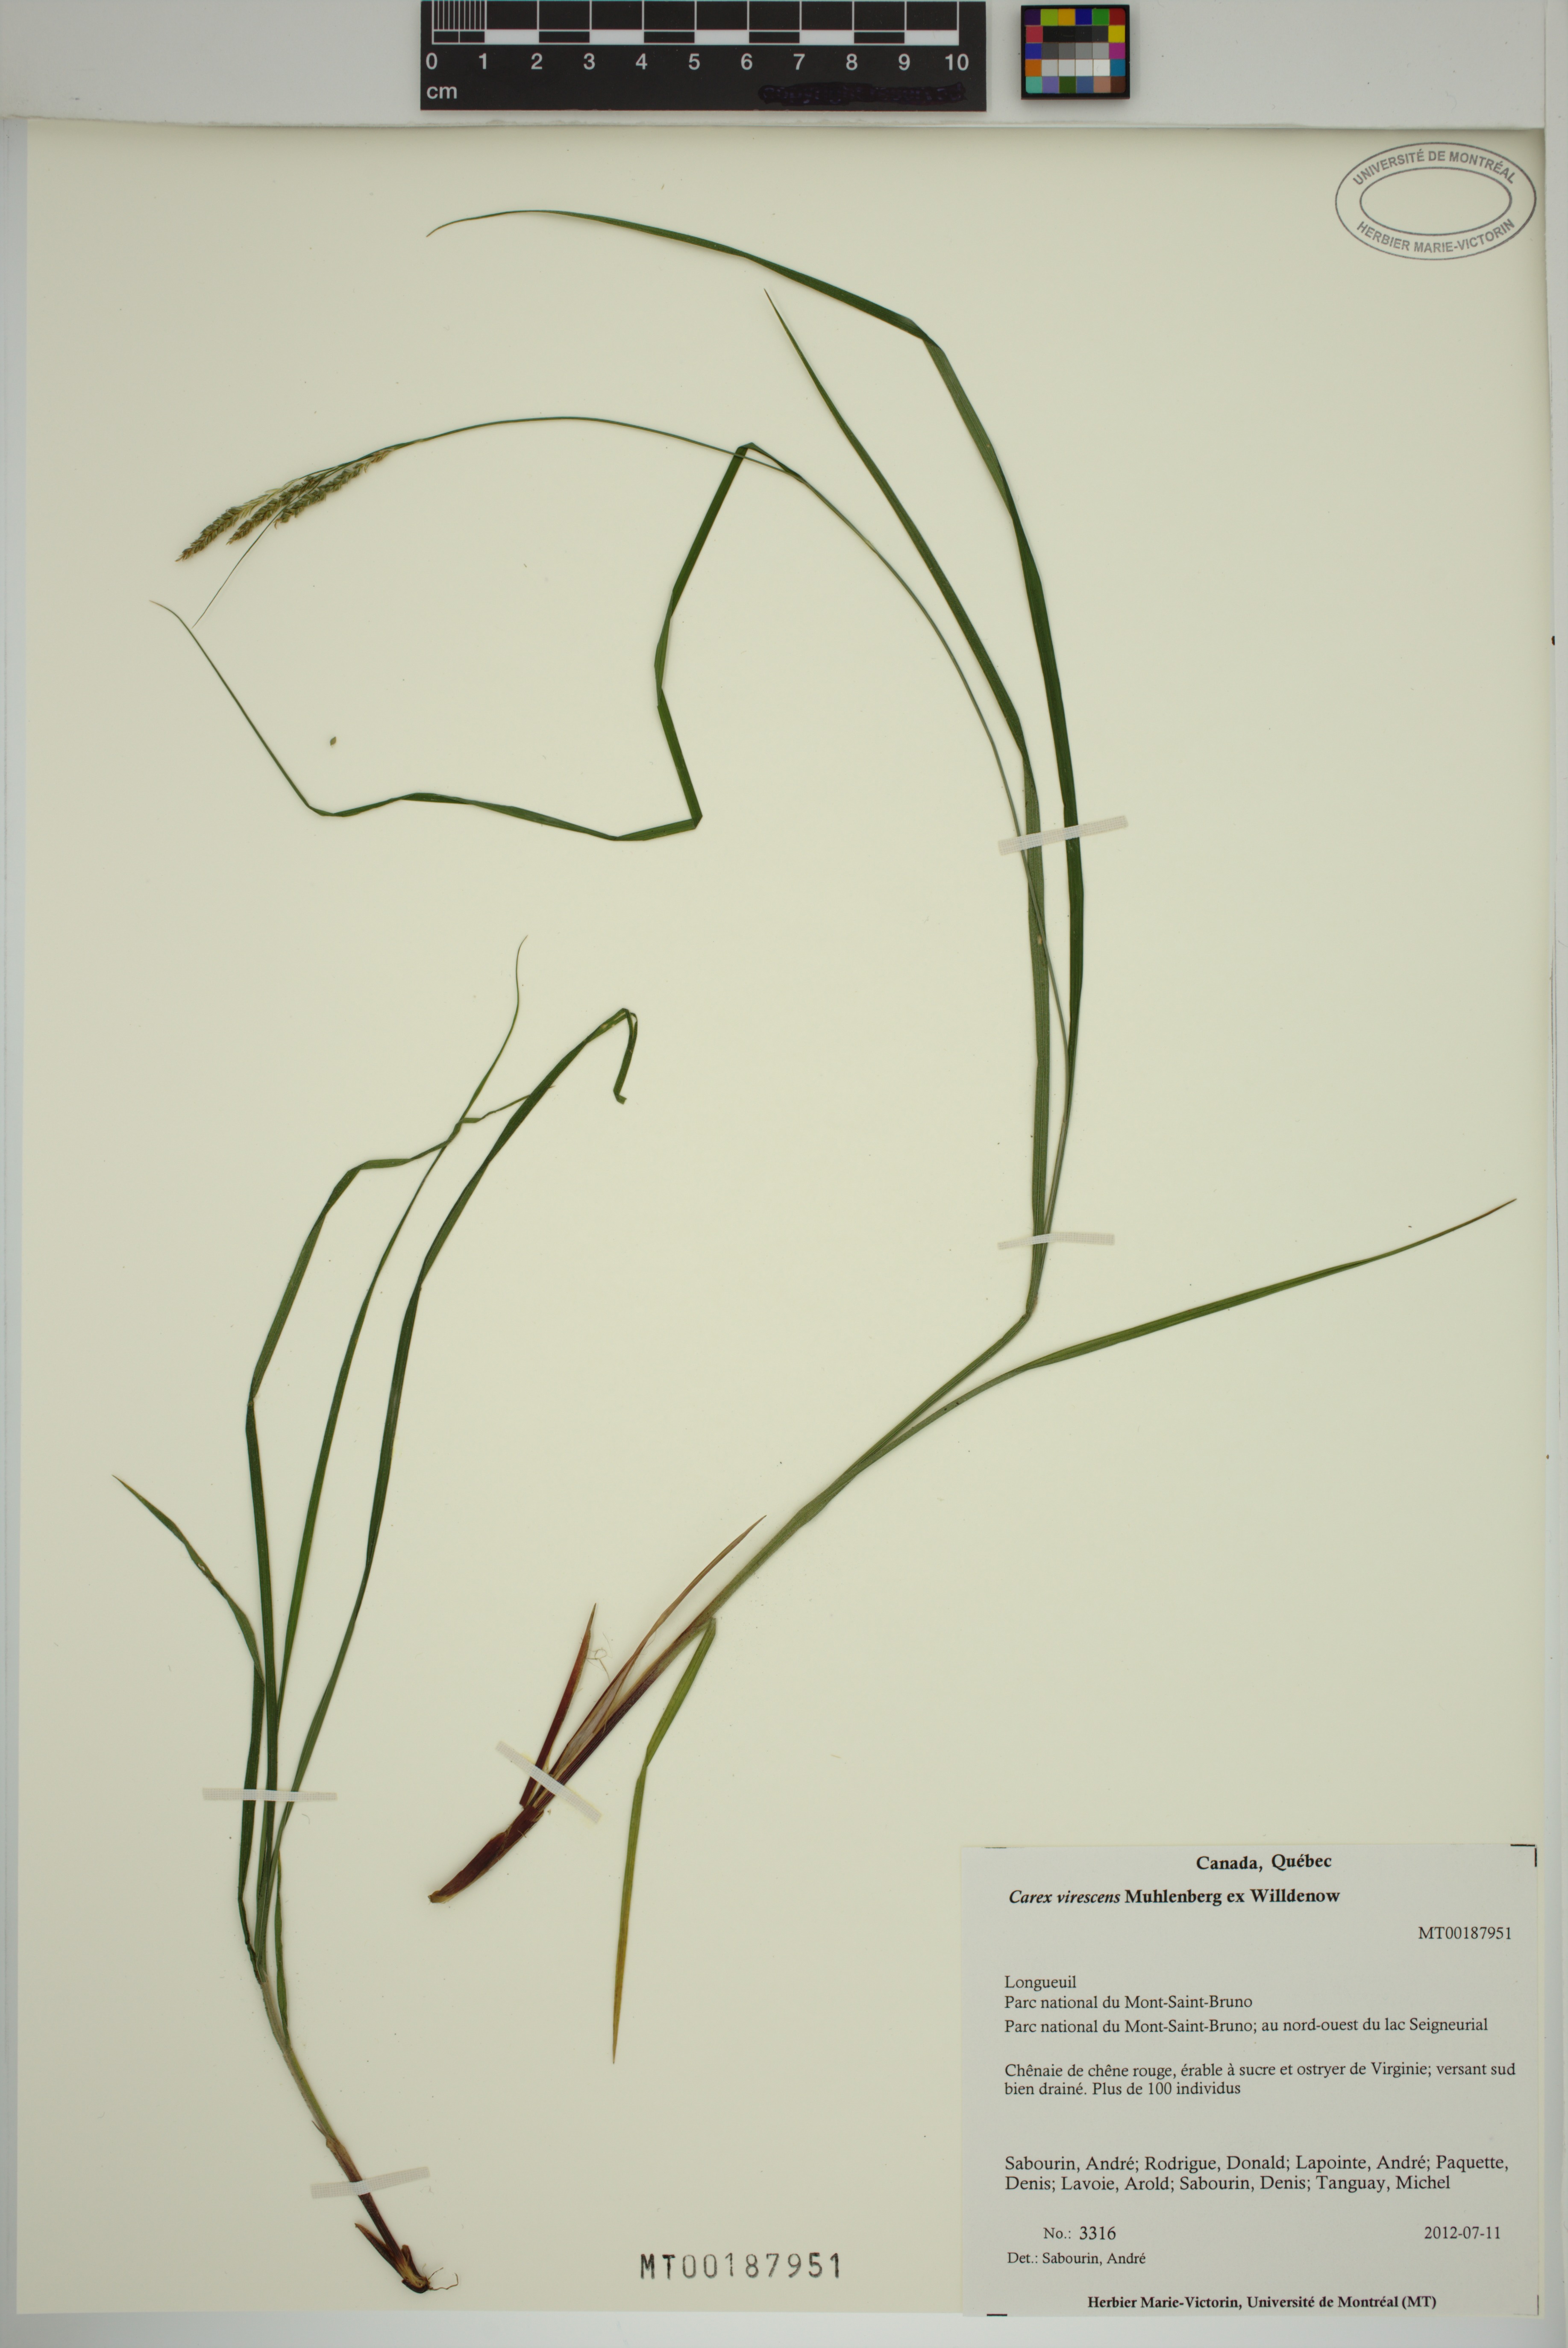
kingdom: Plantae
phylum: Tracheophyta
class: Liliopsida
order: Poales
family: Cyperaceae
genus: Carex
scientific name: Carex virescens
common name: Ribbed sedge
